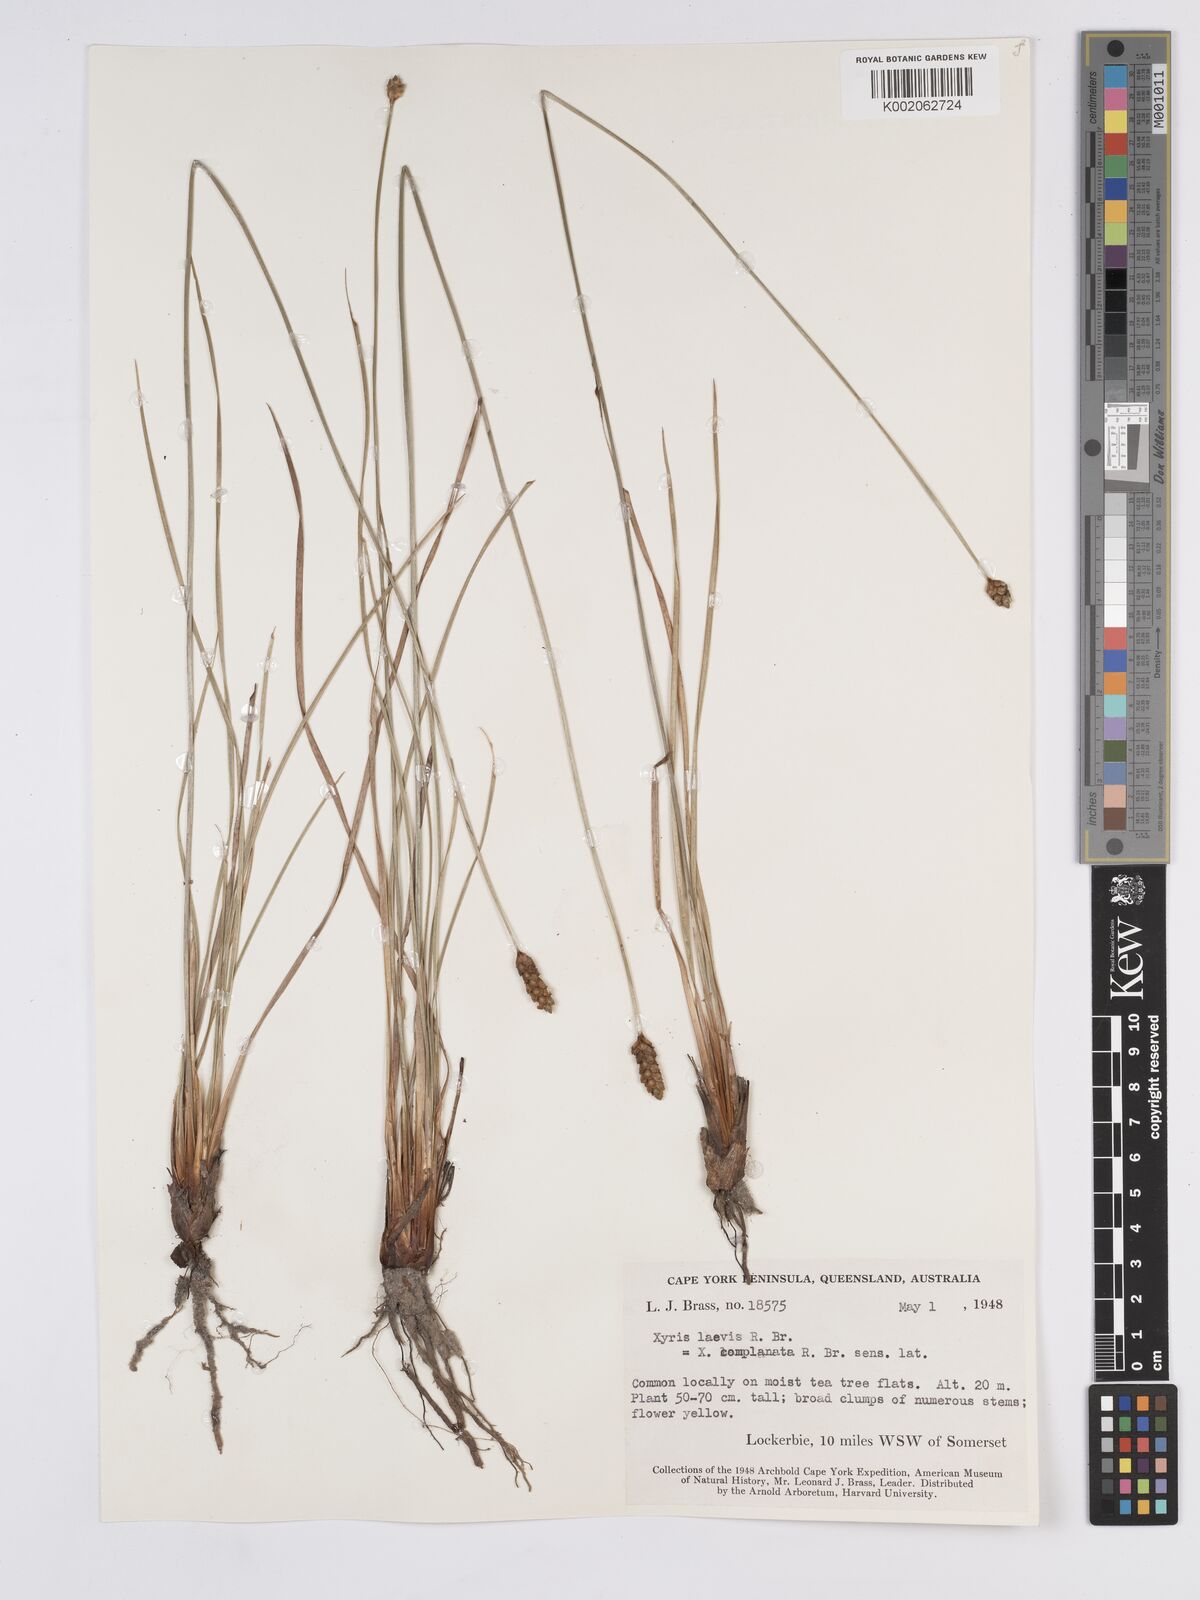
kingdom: Plantae
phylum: Tracheophyta
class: Liliopsida
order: Poales
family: Xyridaceae
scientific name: Xyridaceae
